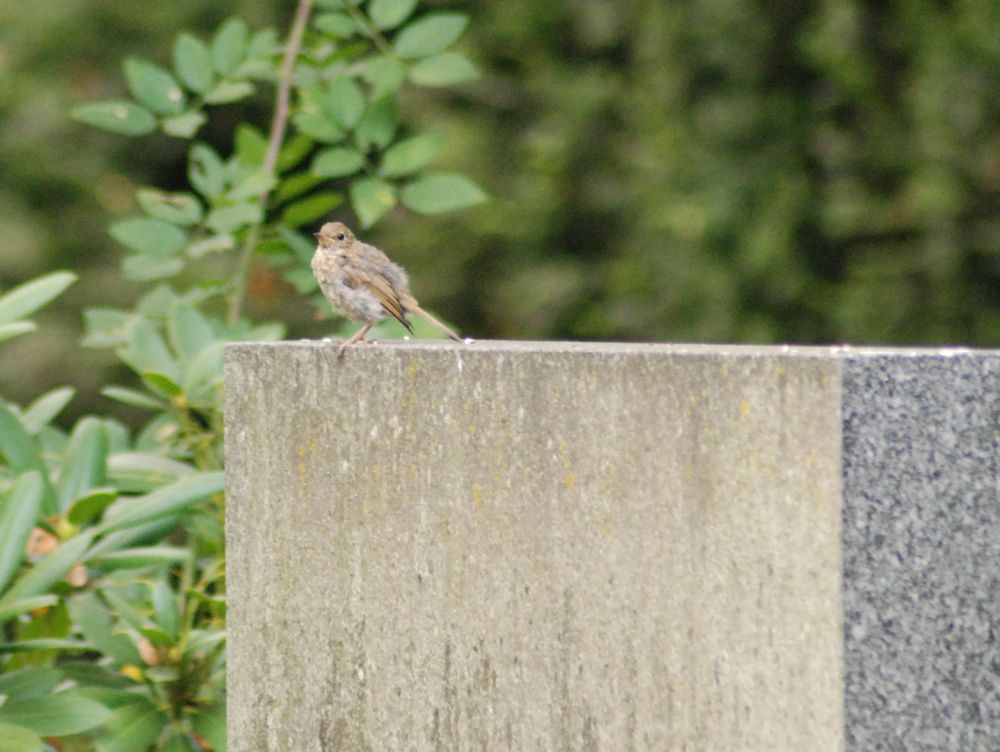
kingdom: Animalia
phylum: Chordata
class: Aves
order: Passeriformes
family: Muscicapidae
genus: Erithacus
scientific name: Erithacus rubecula
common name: European robin
